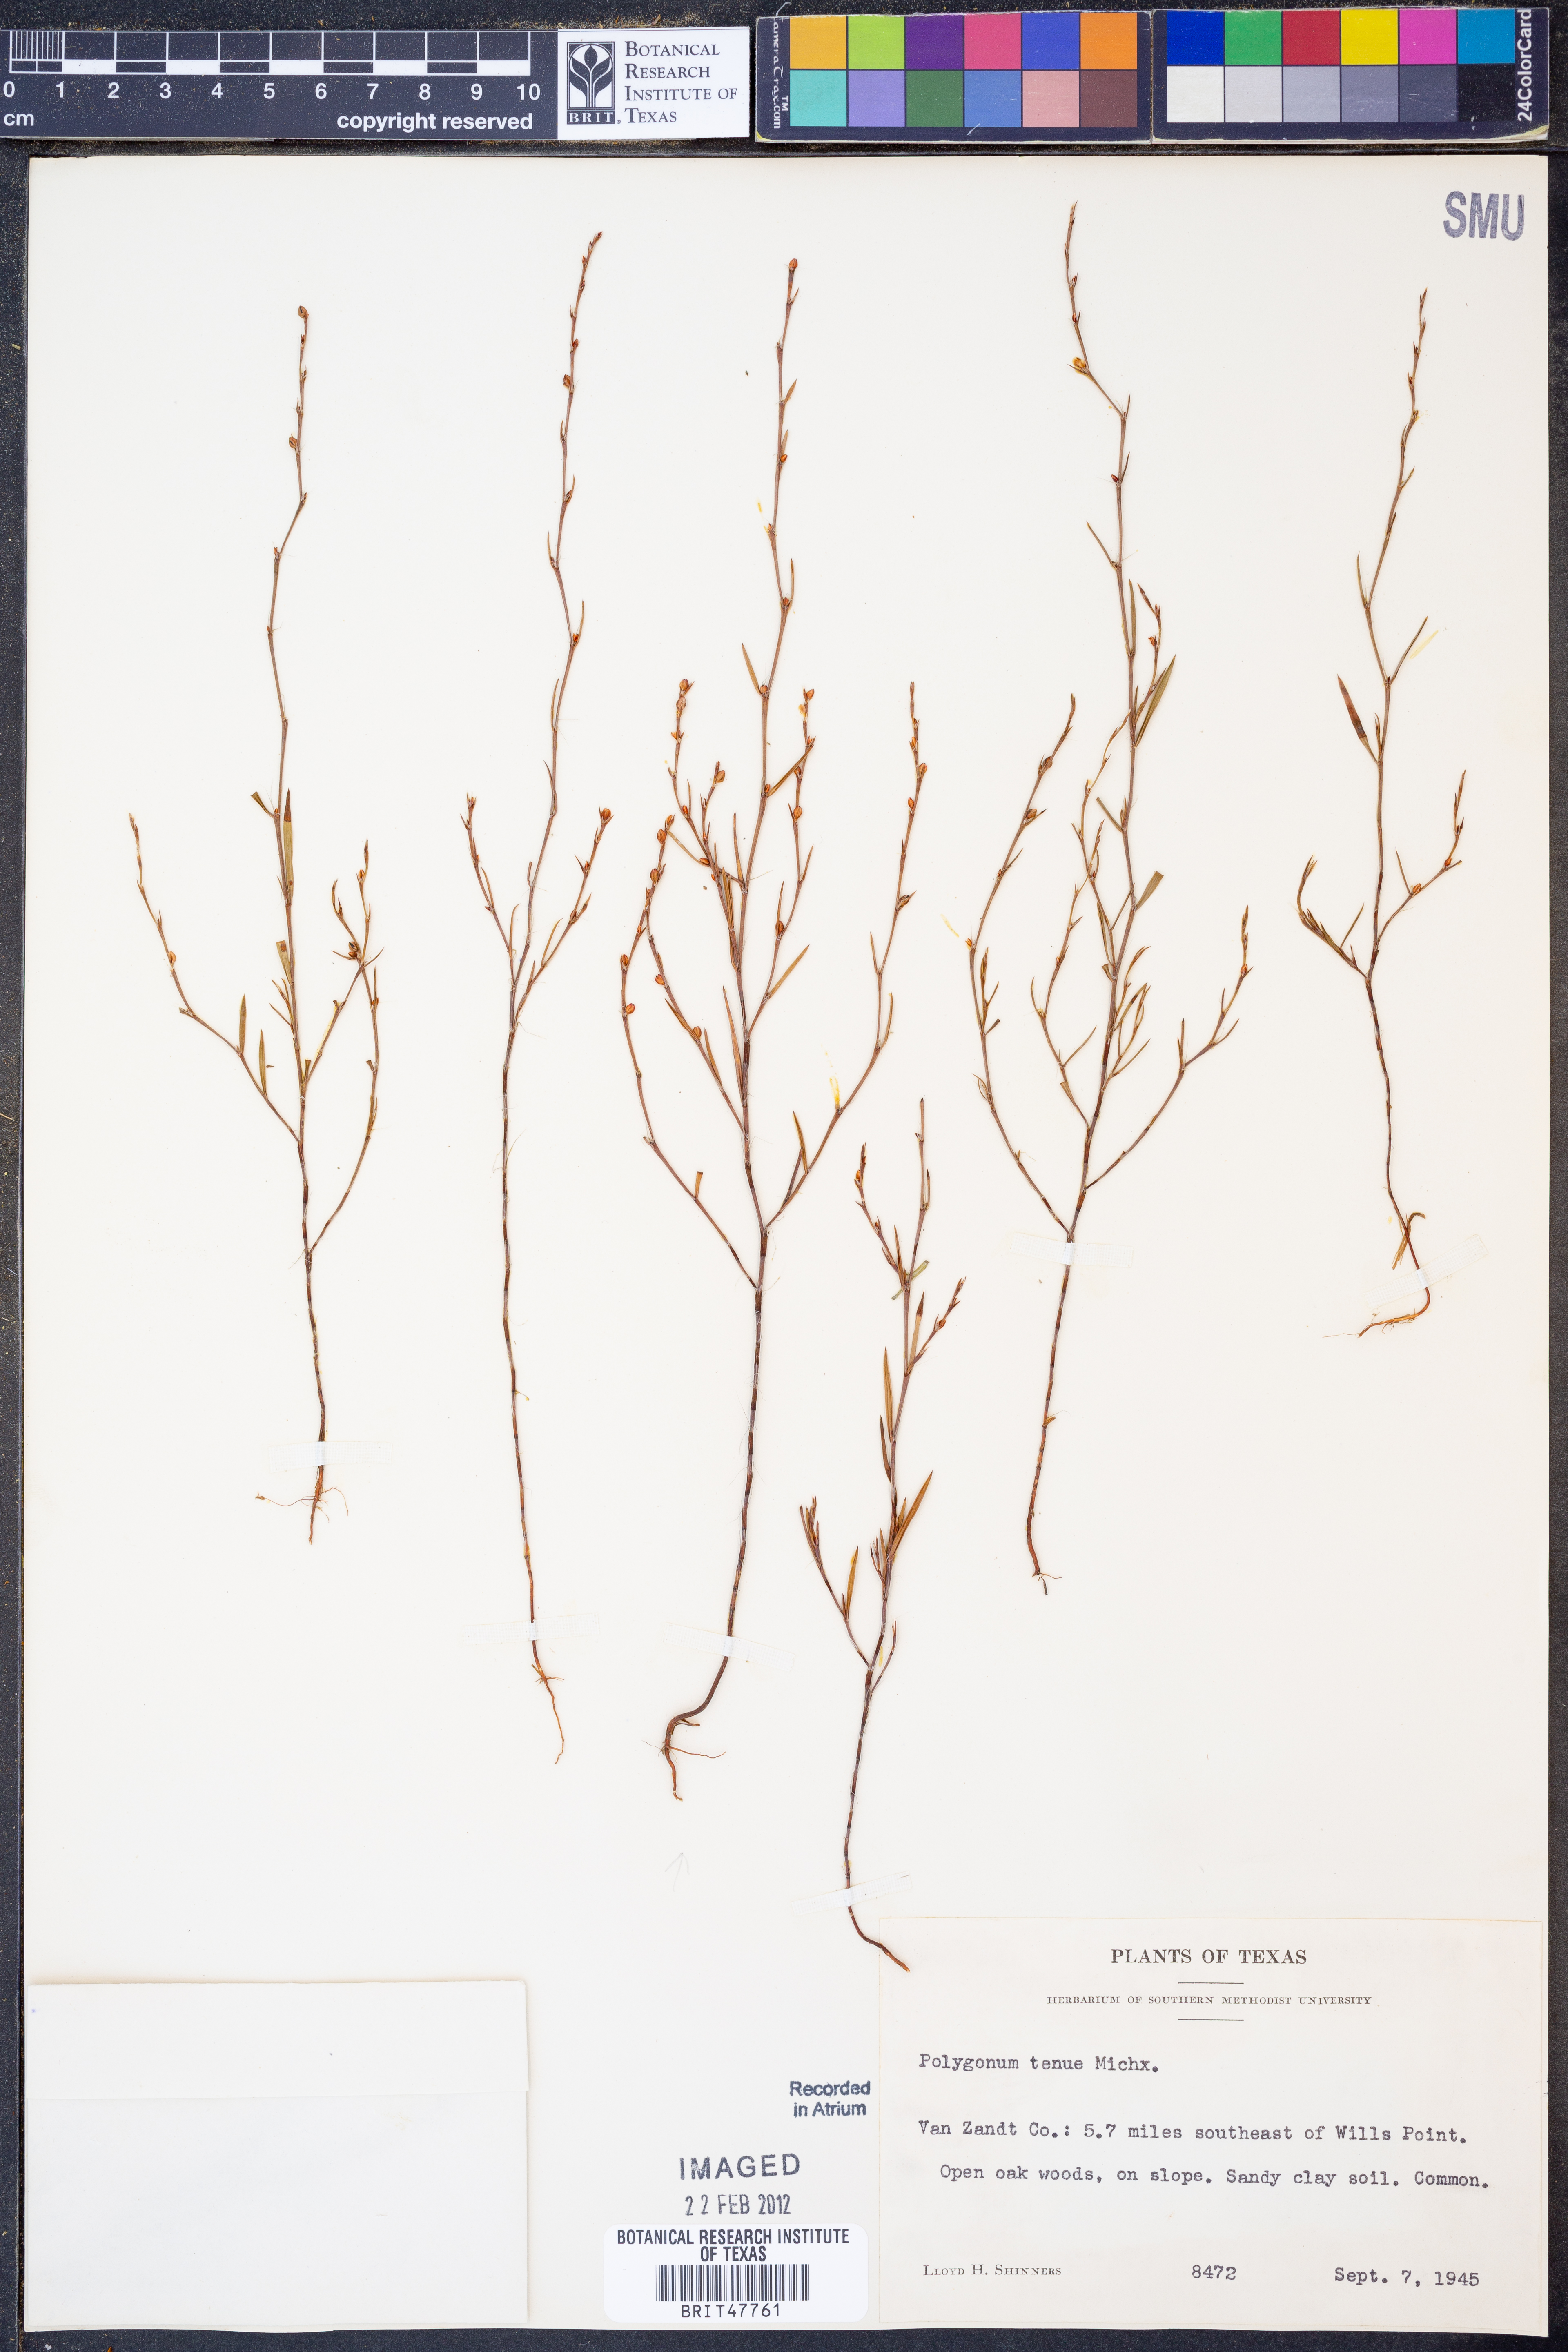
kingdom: Plantae
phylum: Tracheophyta
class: Magnoliopsida
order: Caryophyllales
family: Polygonaceae
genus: Polygonum
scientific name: Polygonum tenue
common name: Pleat-leaved knotweed
